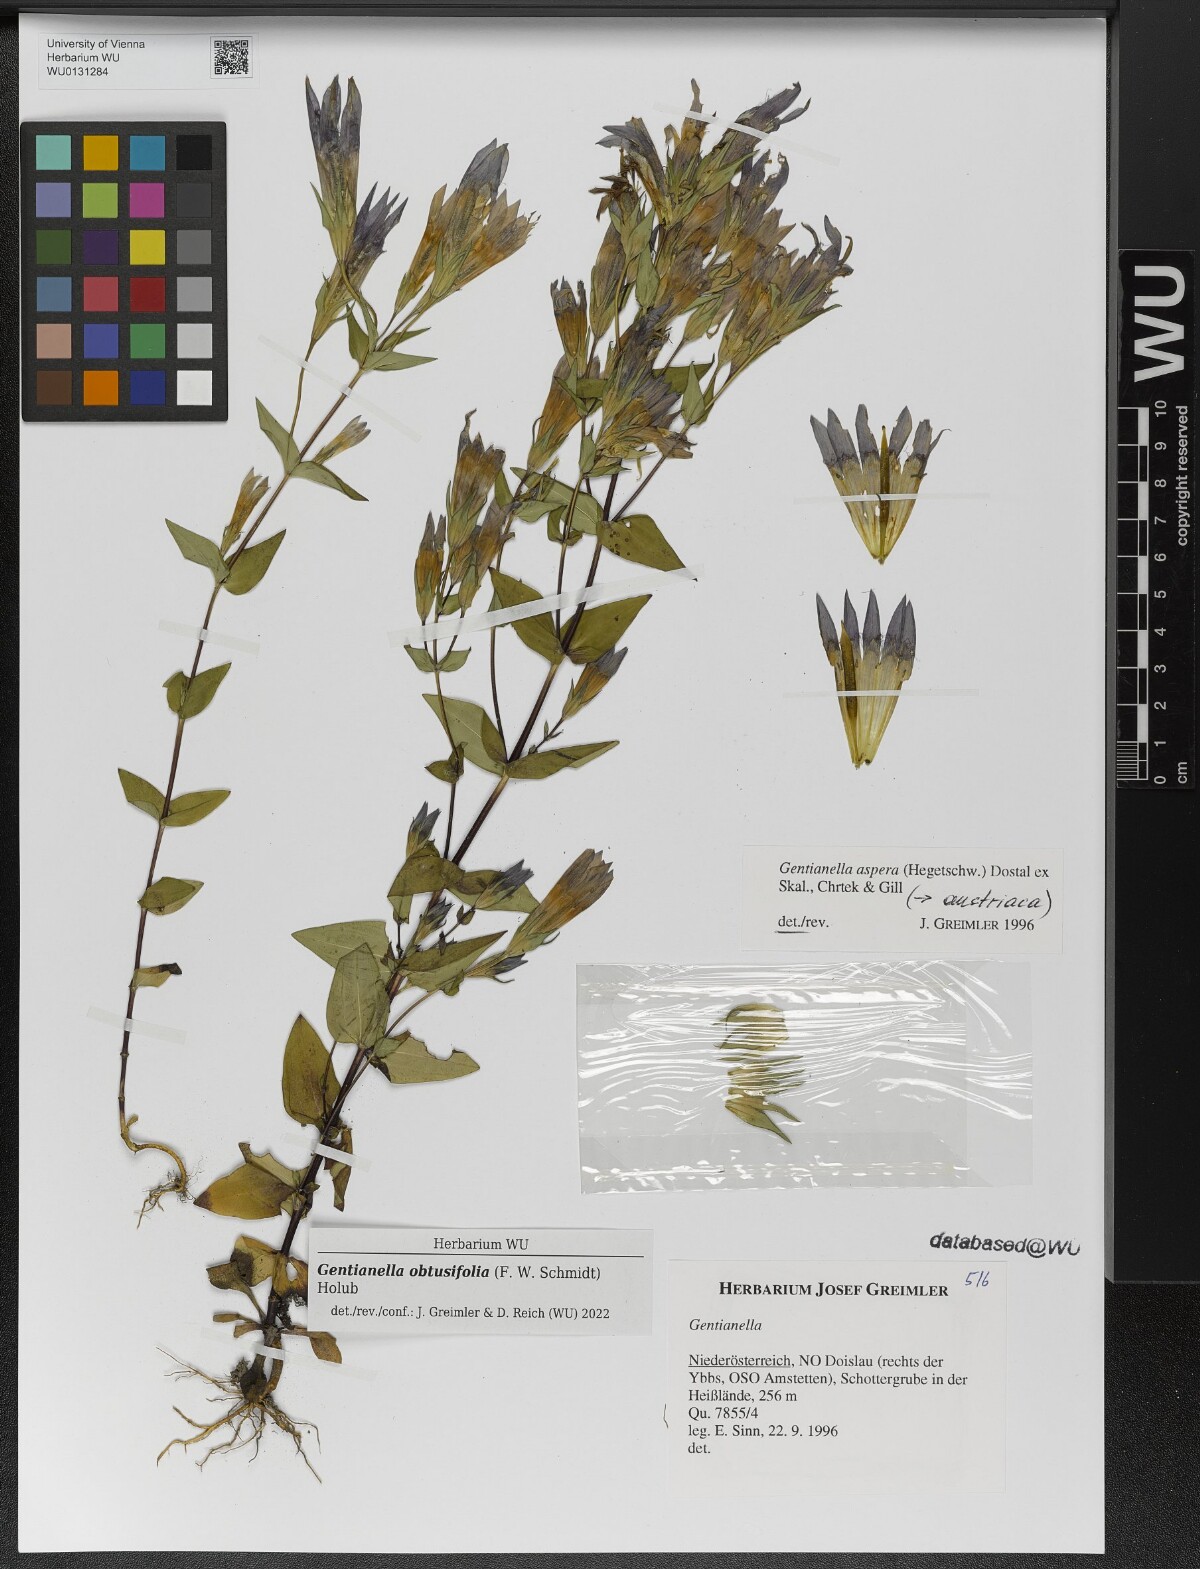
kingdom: Plantae
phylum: Tracheophyta
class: Magnoliopsida
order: Gentianales
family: Gentianaceae
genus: Gentianella
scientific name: Gentianella obtusifolia
